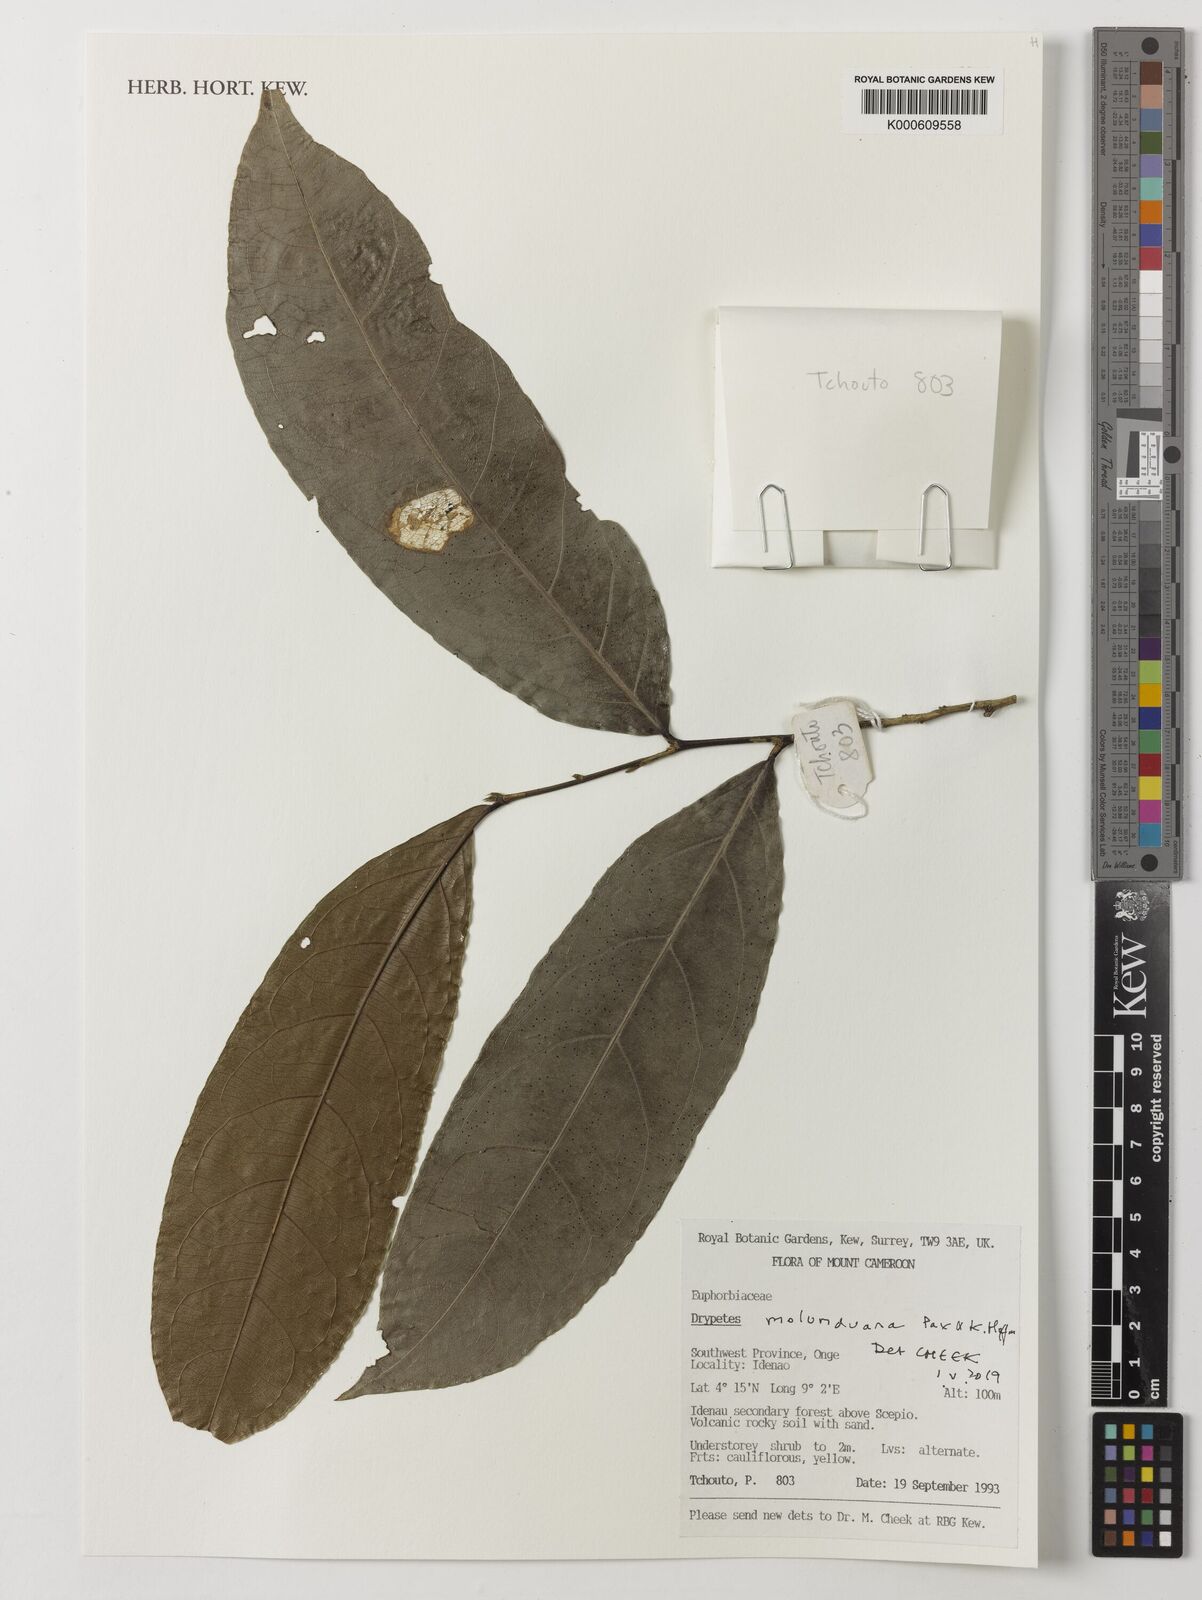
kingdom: Plantae
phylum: Tracheophyta
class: Magnoliopsida
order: Malpighiales
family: Putranjivaceae
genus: Drypetes
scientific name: Drypetes molunduana
